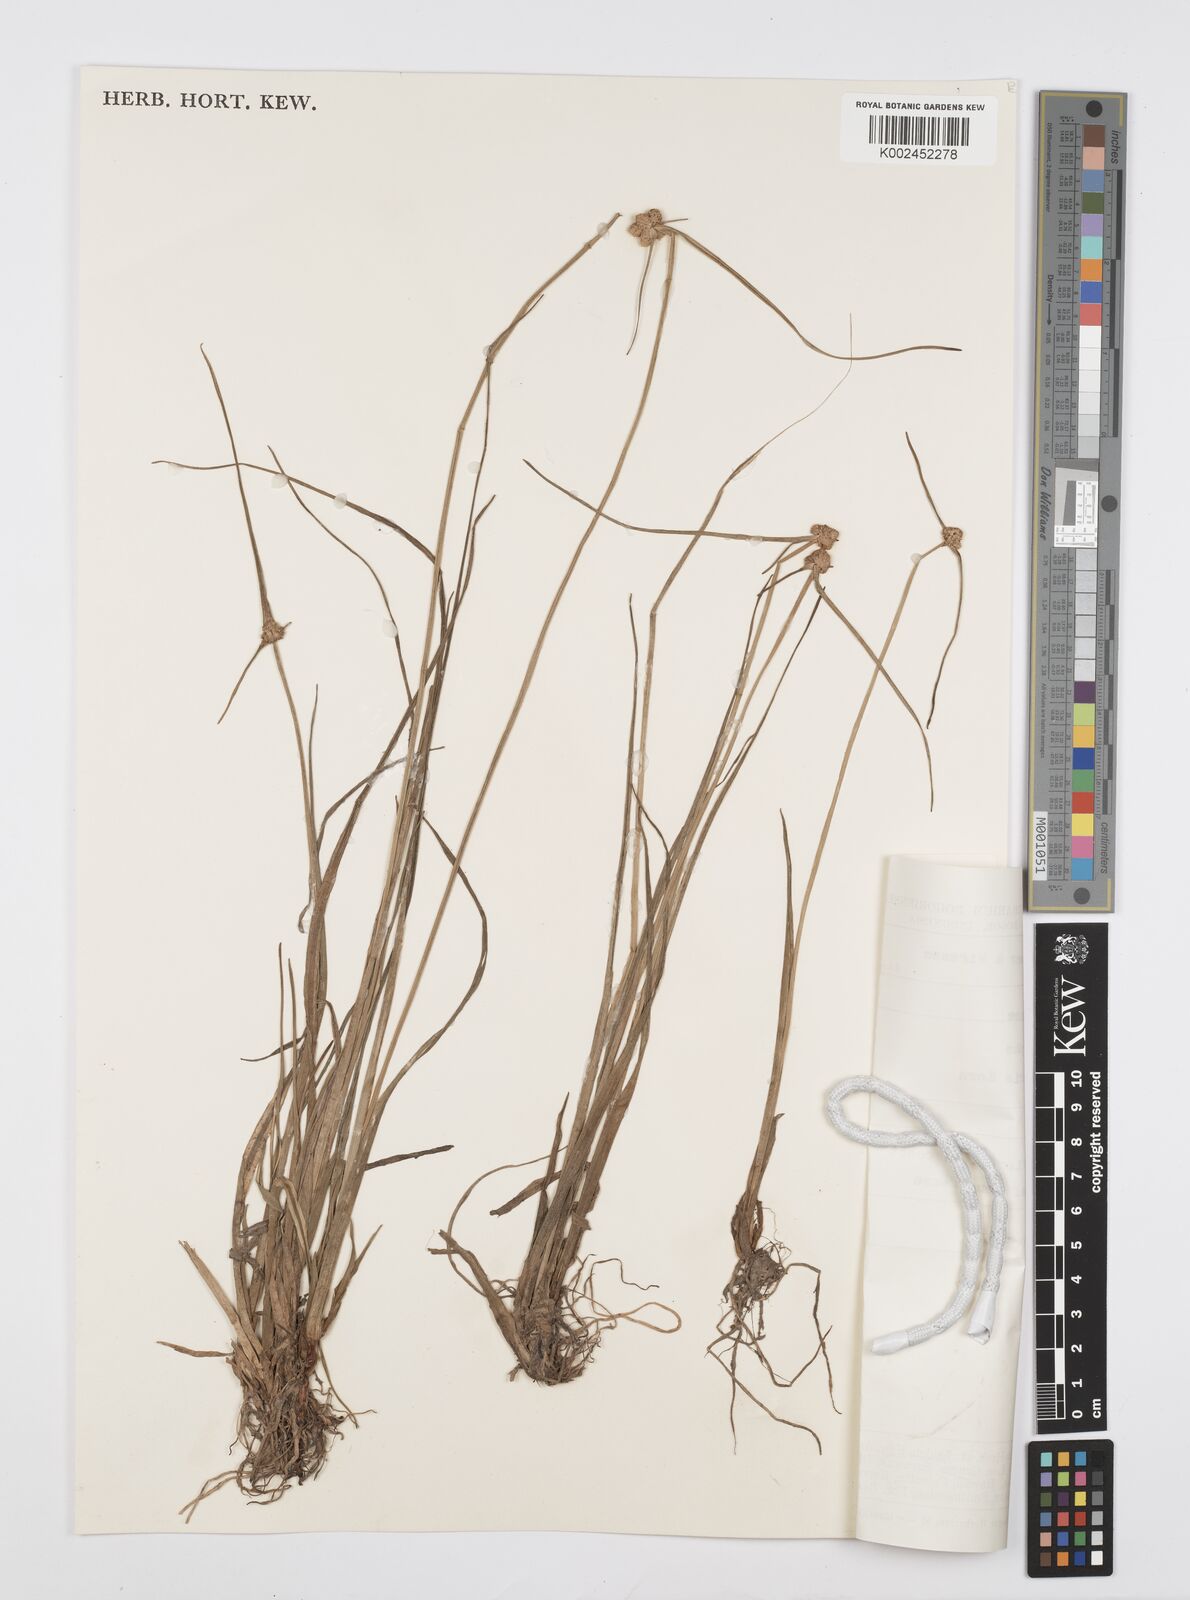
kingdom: Plantae
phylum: Tracheophyta
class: Liliopsida
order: Poales
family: Cyperaceae
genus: Cyperus
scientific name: Cyperus
